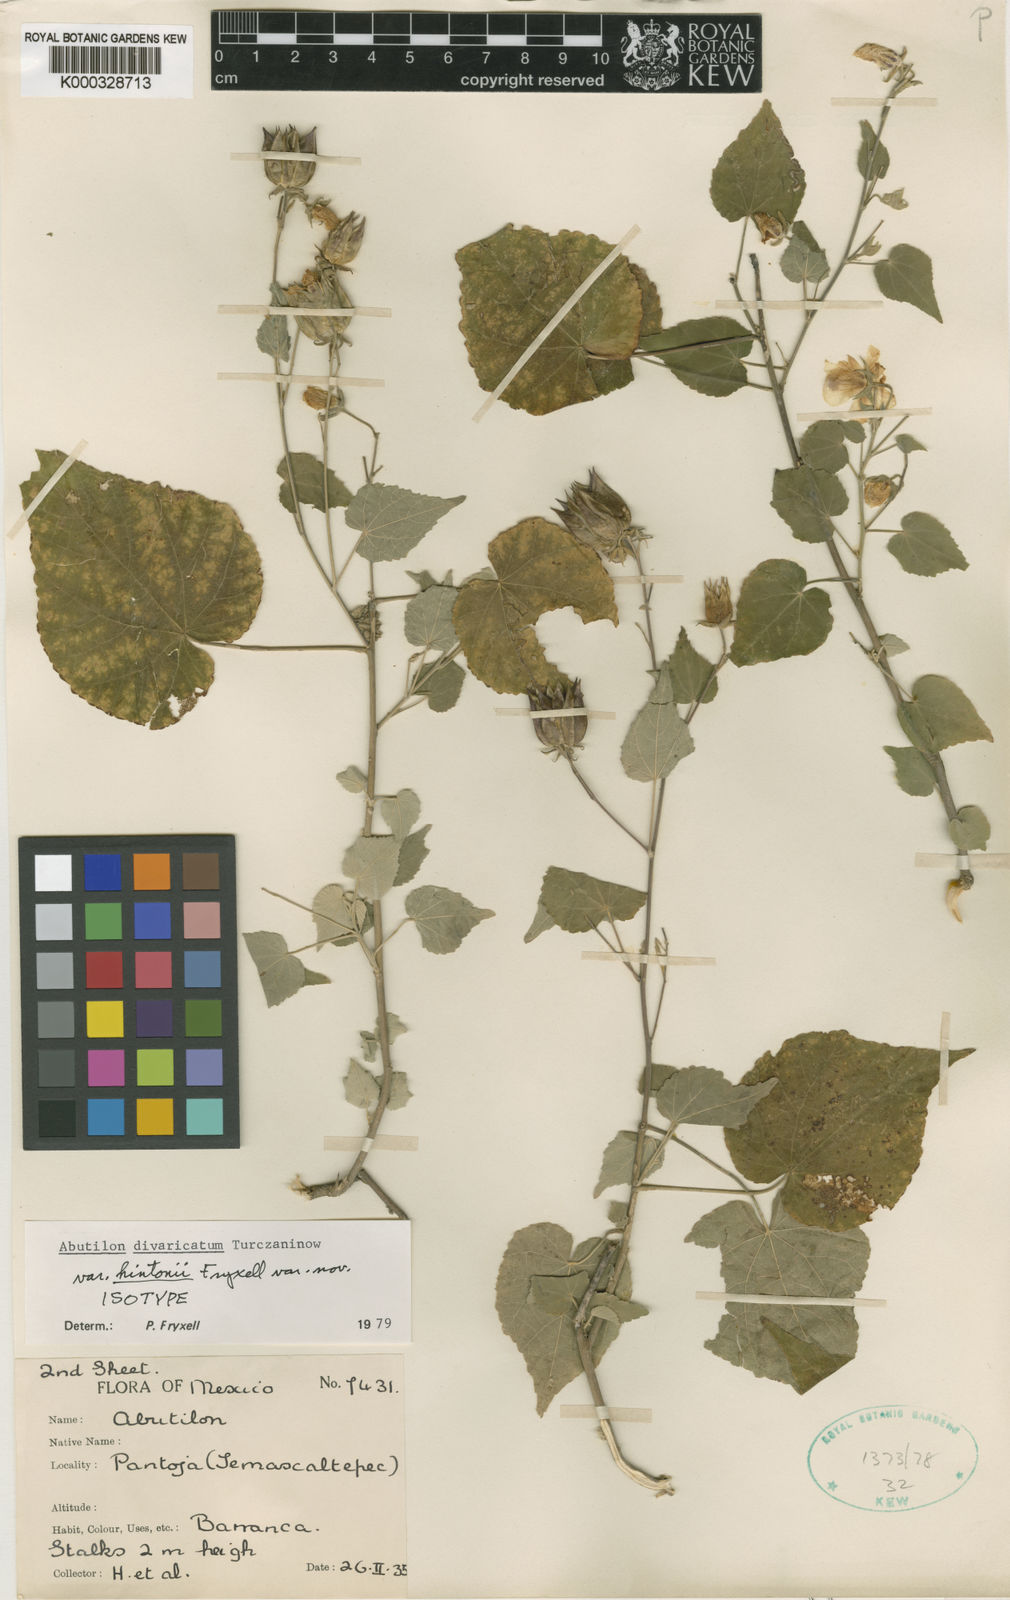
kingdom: Plantae
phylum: Tracheophyta
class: Magnoliopsida
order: Malvales
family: Malvaceae
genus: Abutilon
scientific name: Abutilon divaricatum
